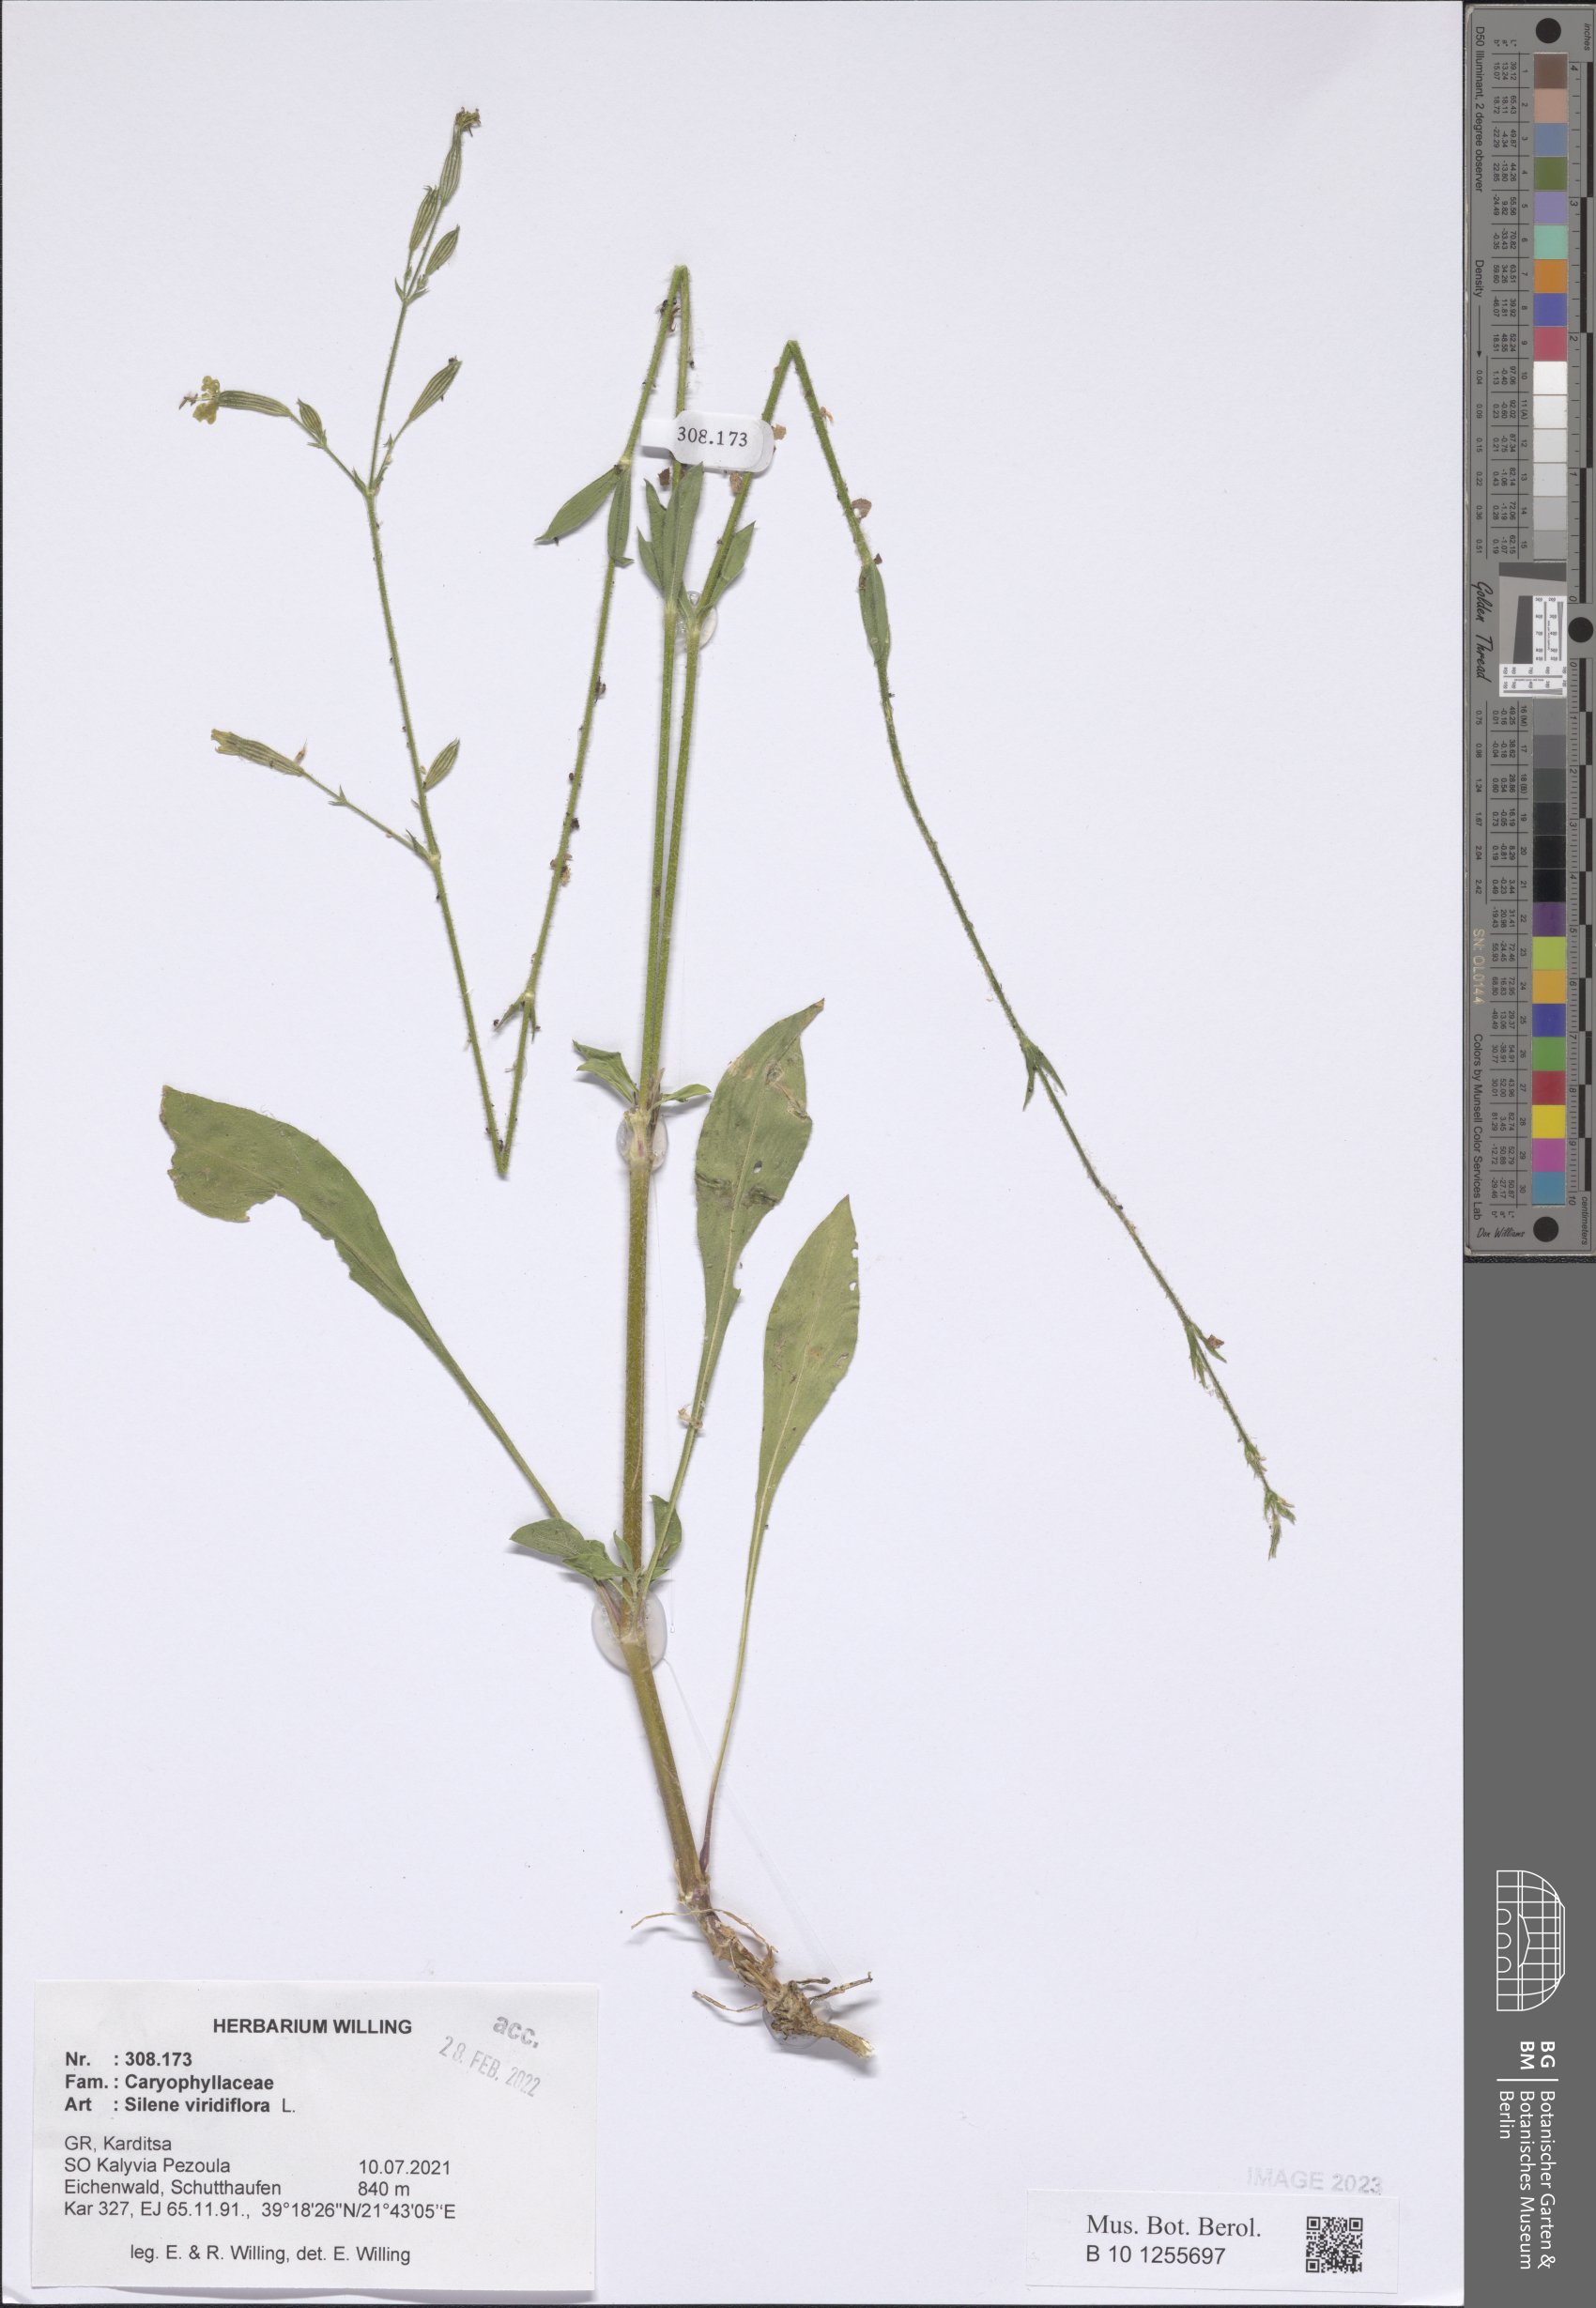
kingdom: Plantae
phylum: Tracheophyta
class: Magnoliopsida
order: Caryophyllales
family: Caryophyllaceae
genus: Silene
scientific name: Silene viridiflora
